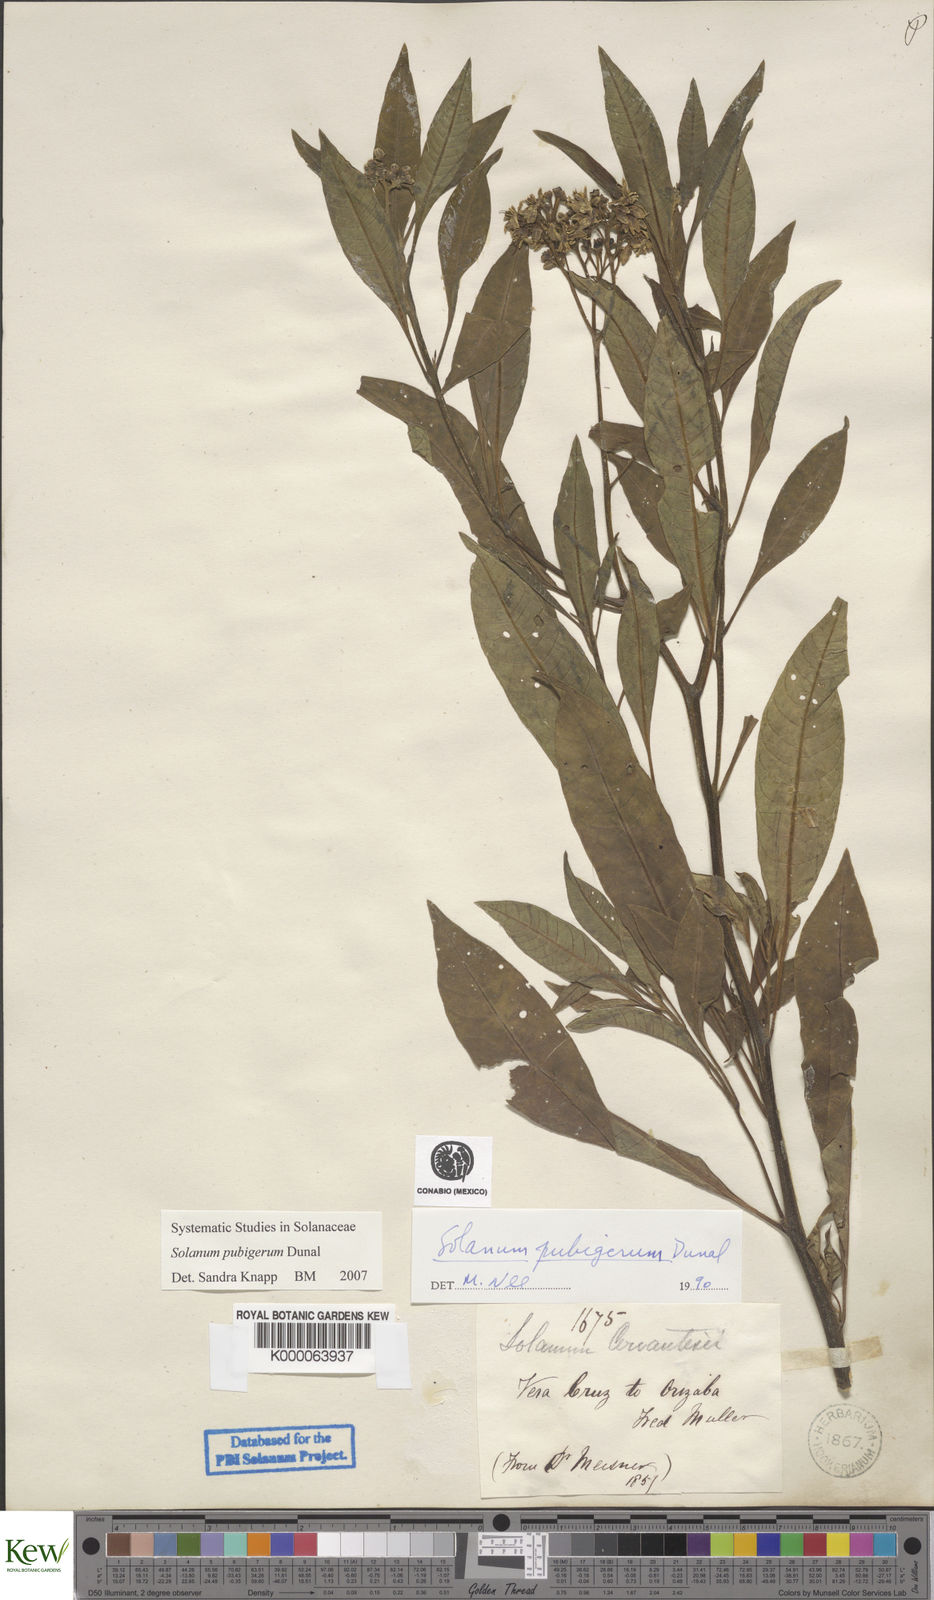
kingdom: Plantae
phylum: Tracheophyta
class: Magnoliopsida
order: Solanales
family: Solanaceae
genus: Solanum
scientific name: Solanum pubigerum
